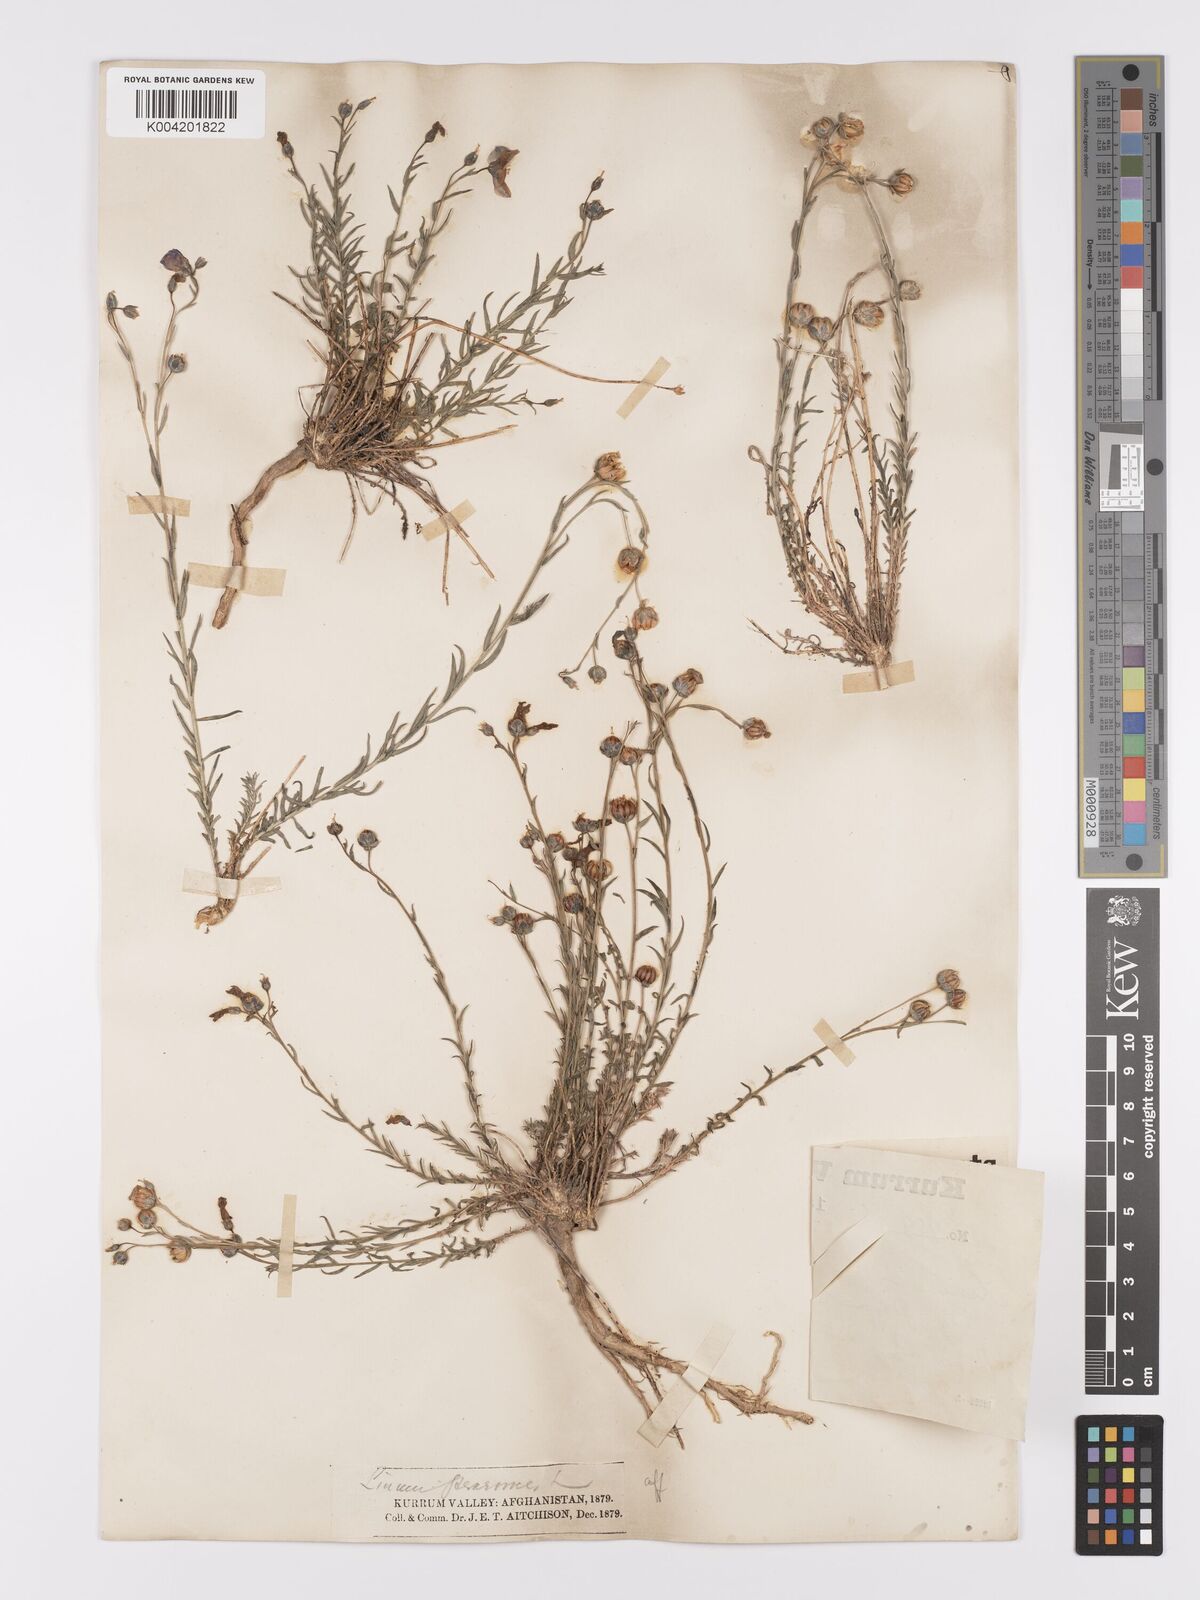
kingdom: Plantae
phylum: Tracheophyta
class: Magnoliopsida
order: Malpighiales
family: Linaceae
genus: Linum
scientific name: Linum
